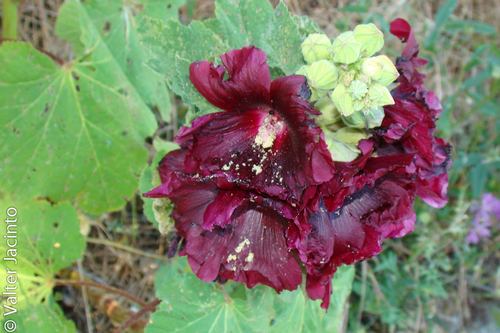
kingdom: Plantae
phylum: Tracheophyta
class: Magnoliopsida
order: Malvales
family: Malvaceae
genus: Alcea
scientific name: Alcea rosea
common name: Hollyhock
